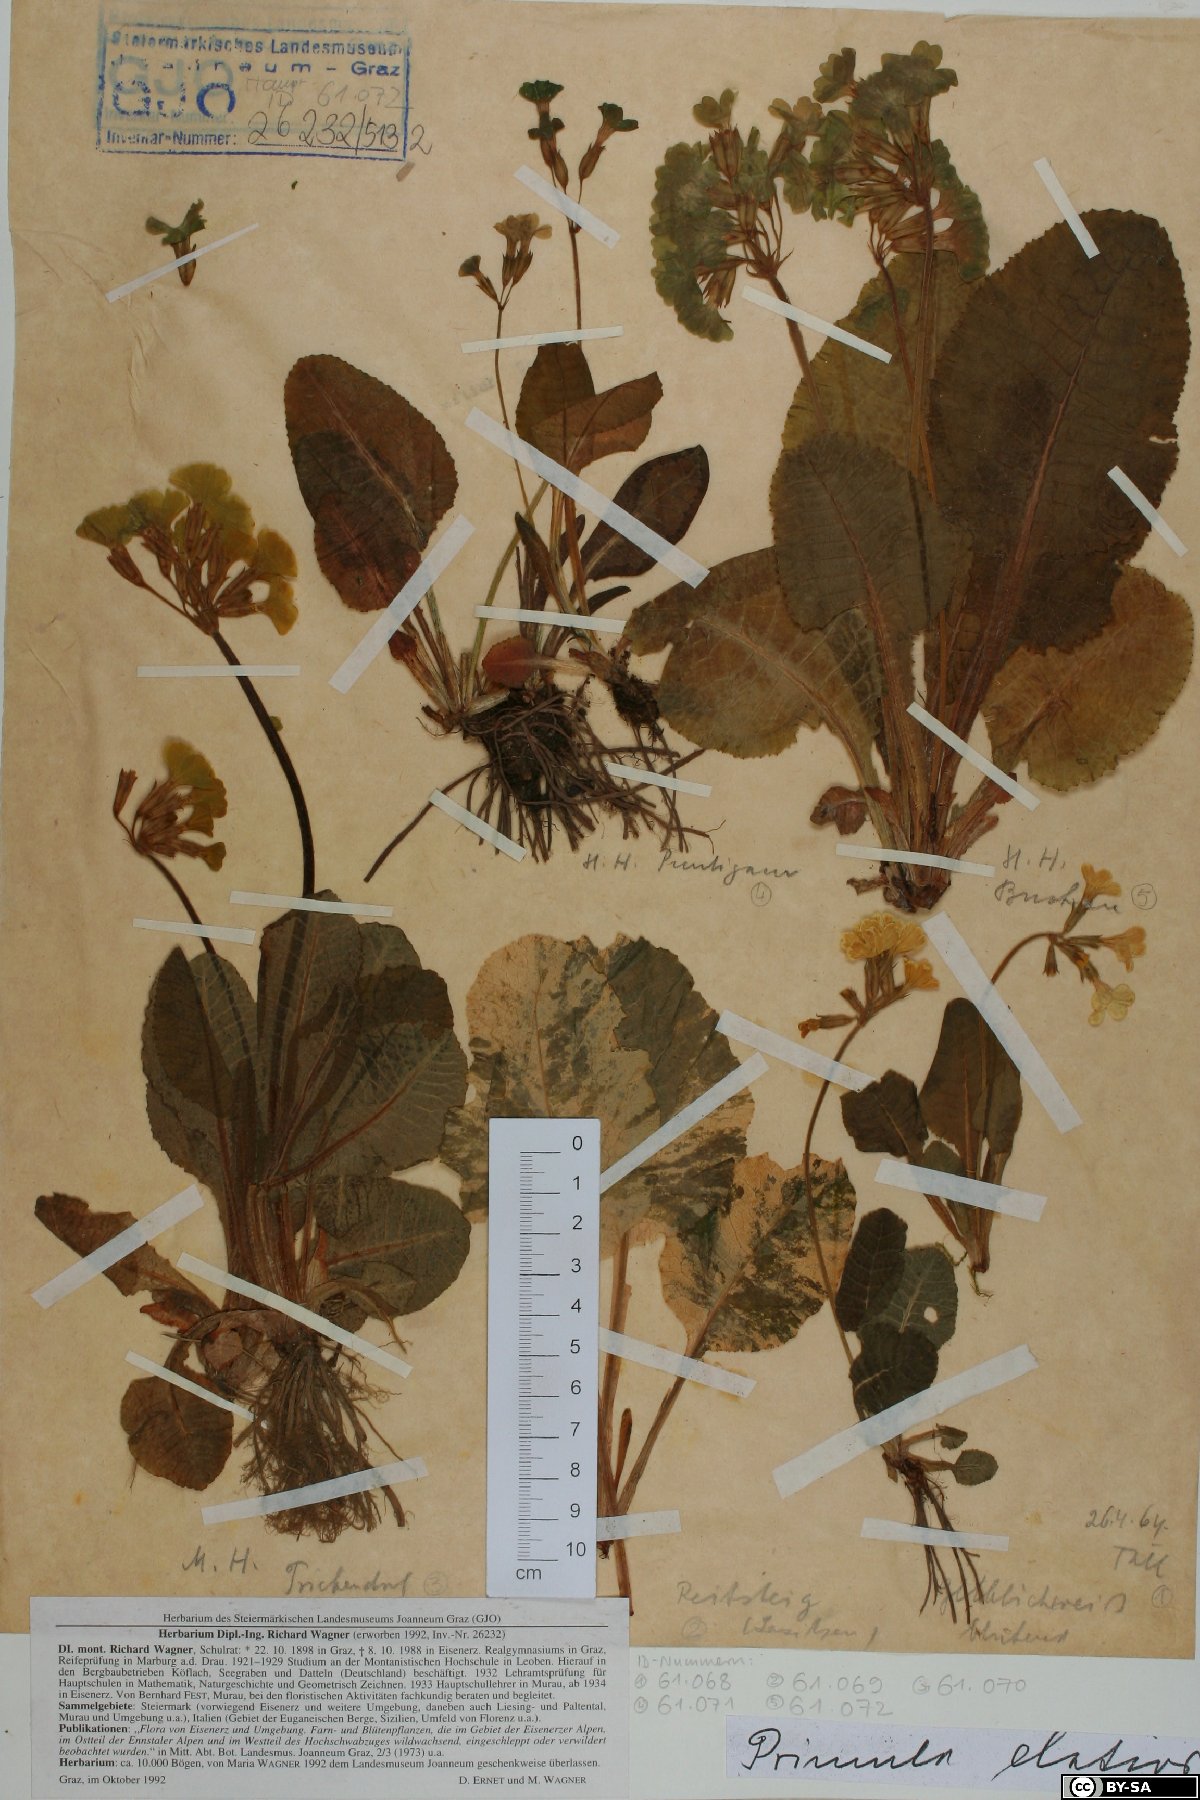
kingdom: Plantae
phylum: Tracheophyta
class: Magnoliopsida
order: Ericales
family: Primulaceae
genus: Primula
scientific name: Primula elatior
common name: Oxlip
